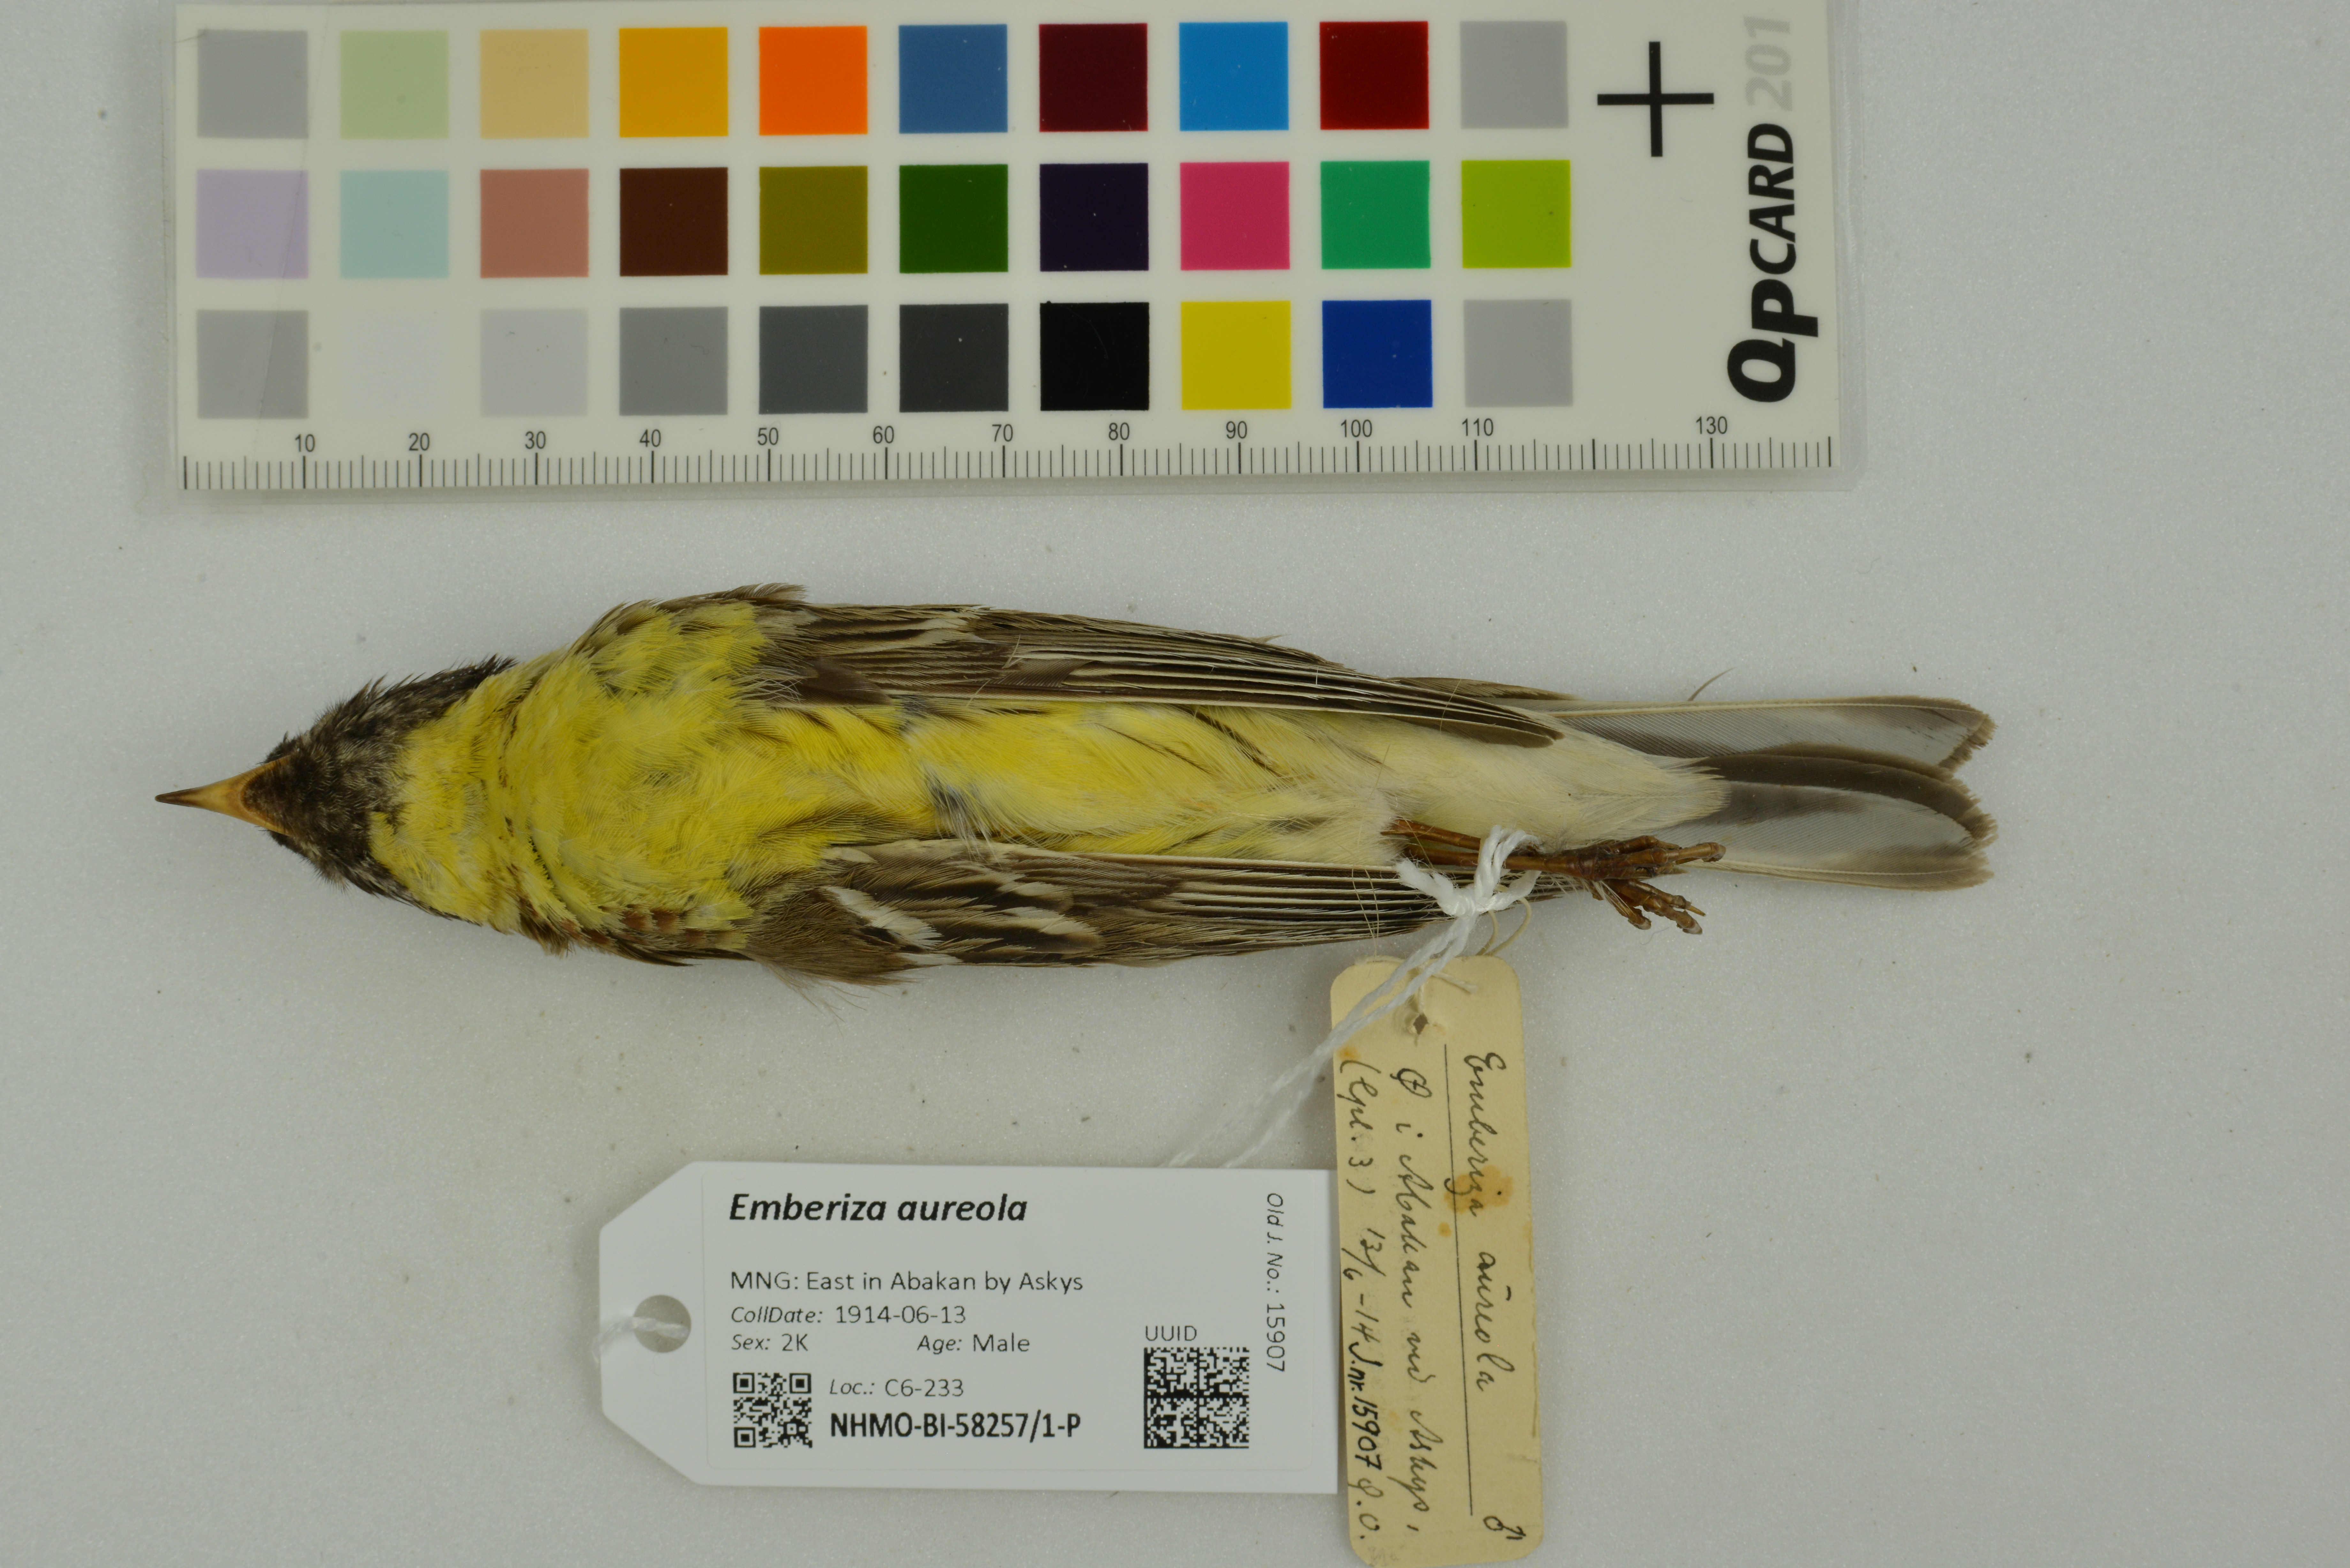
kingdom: Animalia
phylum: Chordata
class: Aves
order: Passeriformes
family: Emberizidae
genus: Emberiza
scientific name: Emberiza aureola
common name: Yellow-breasted bunting
